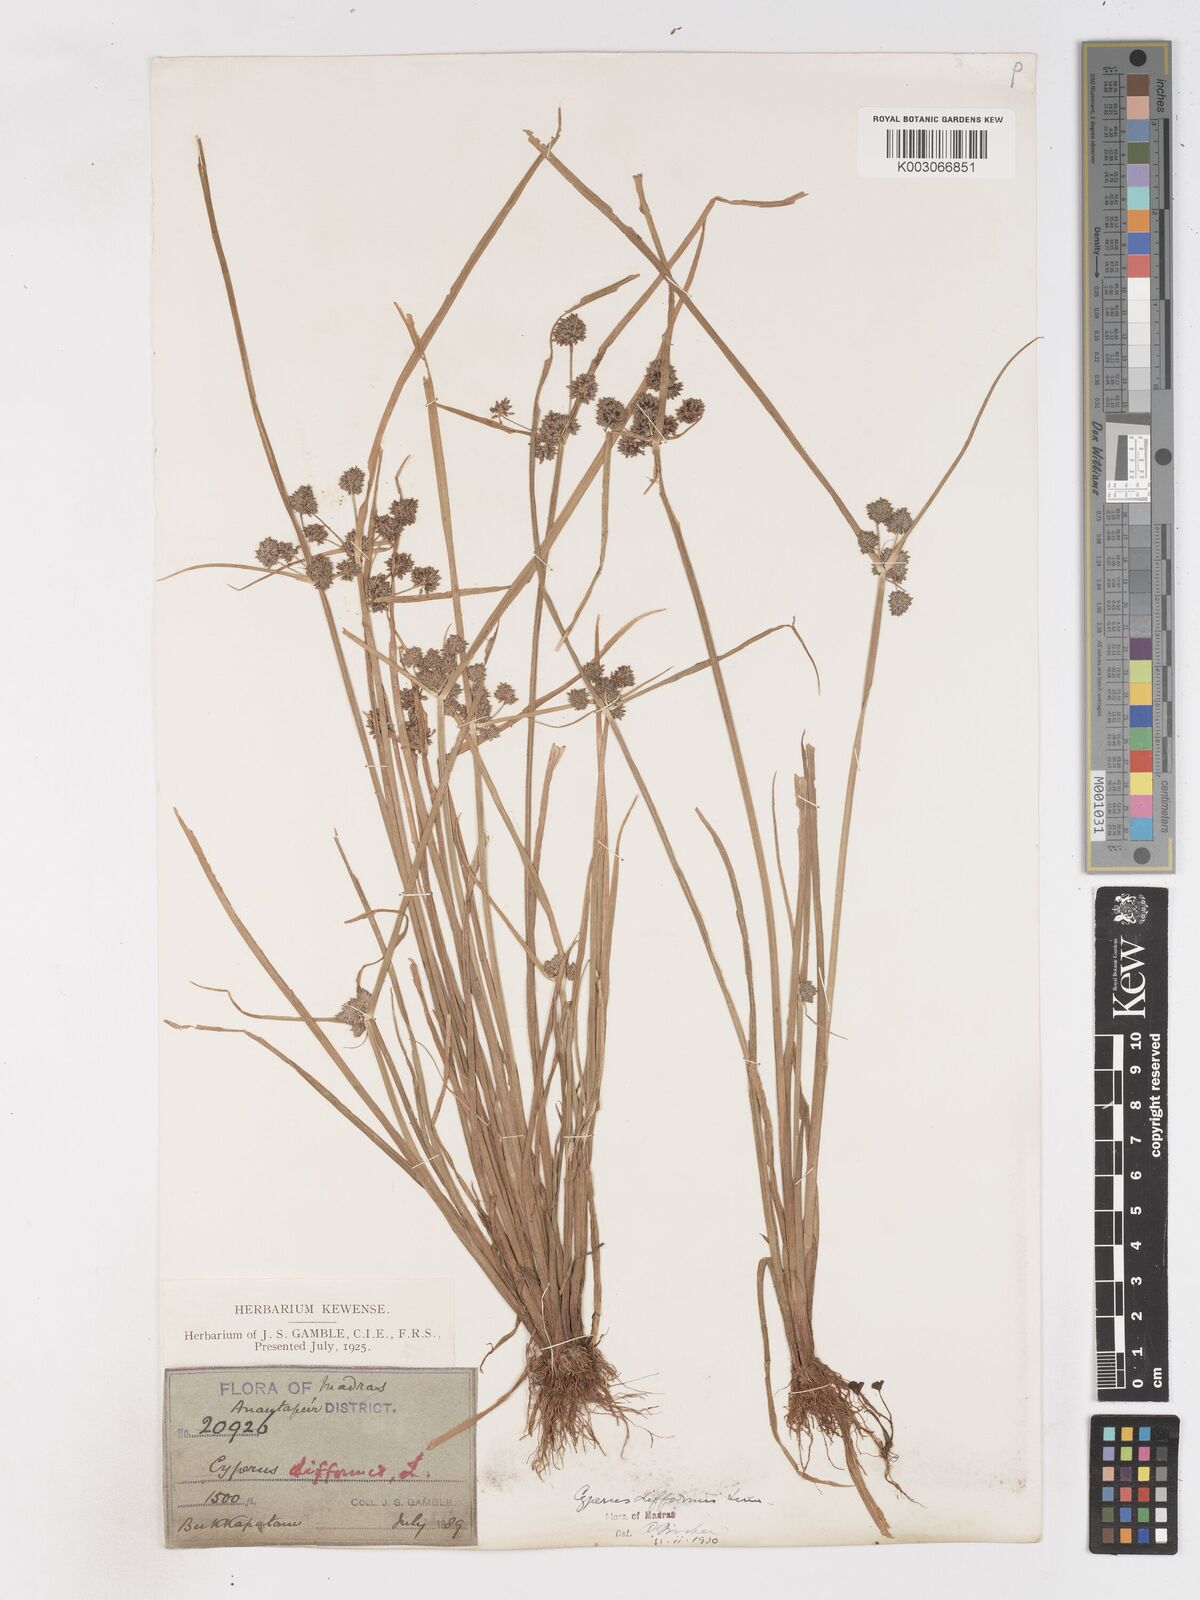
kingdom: Plantae
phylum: Tracheophyta
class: Liliopsida
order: Poales
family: Cyperaceae
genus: Cyperus
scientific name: Cyperus difformis
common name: Variable flatsedge
